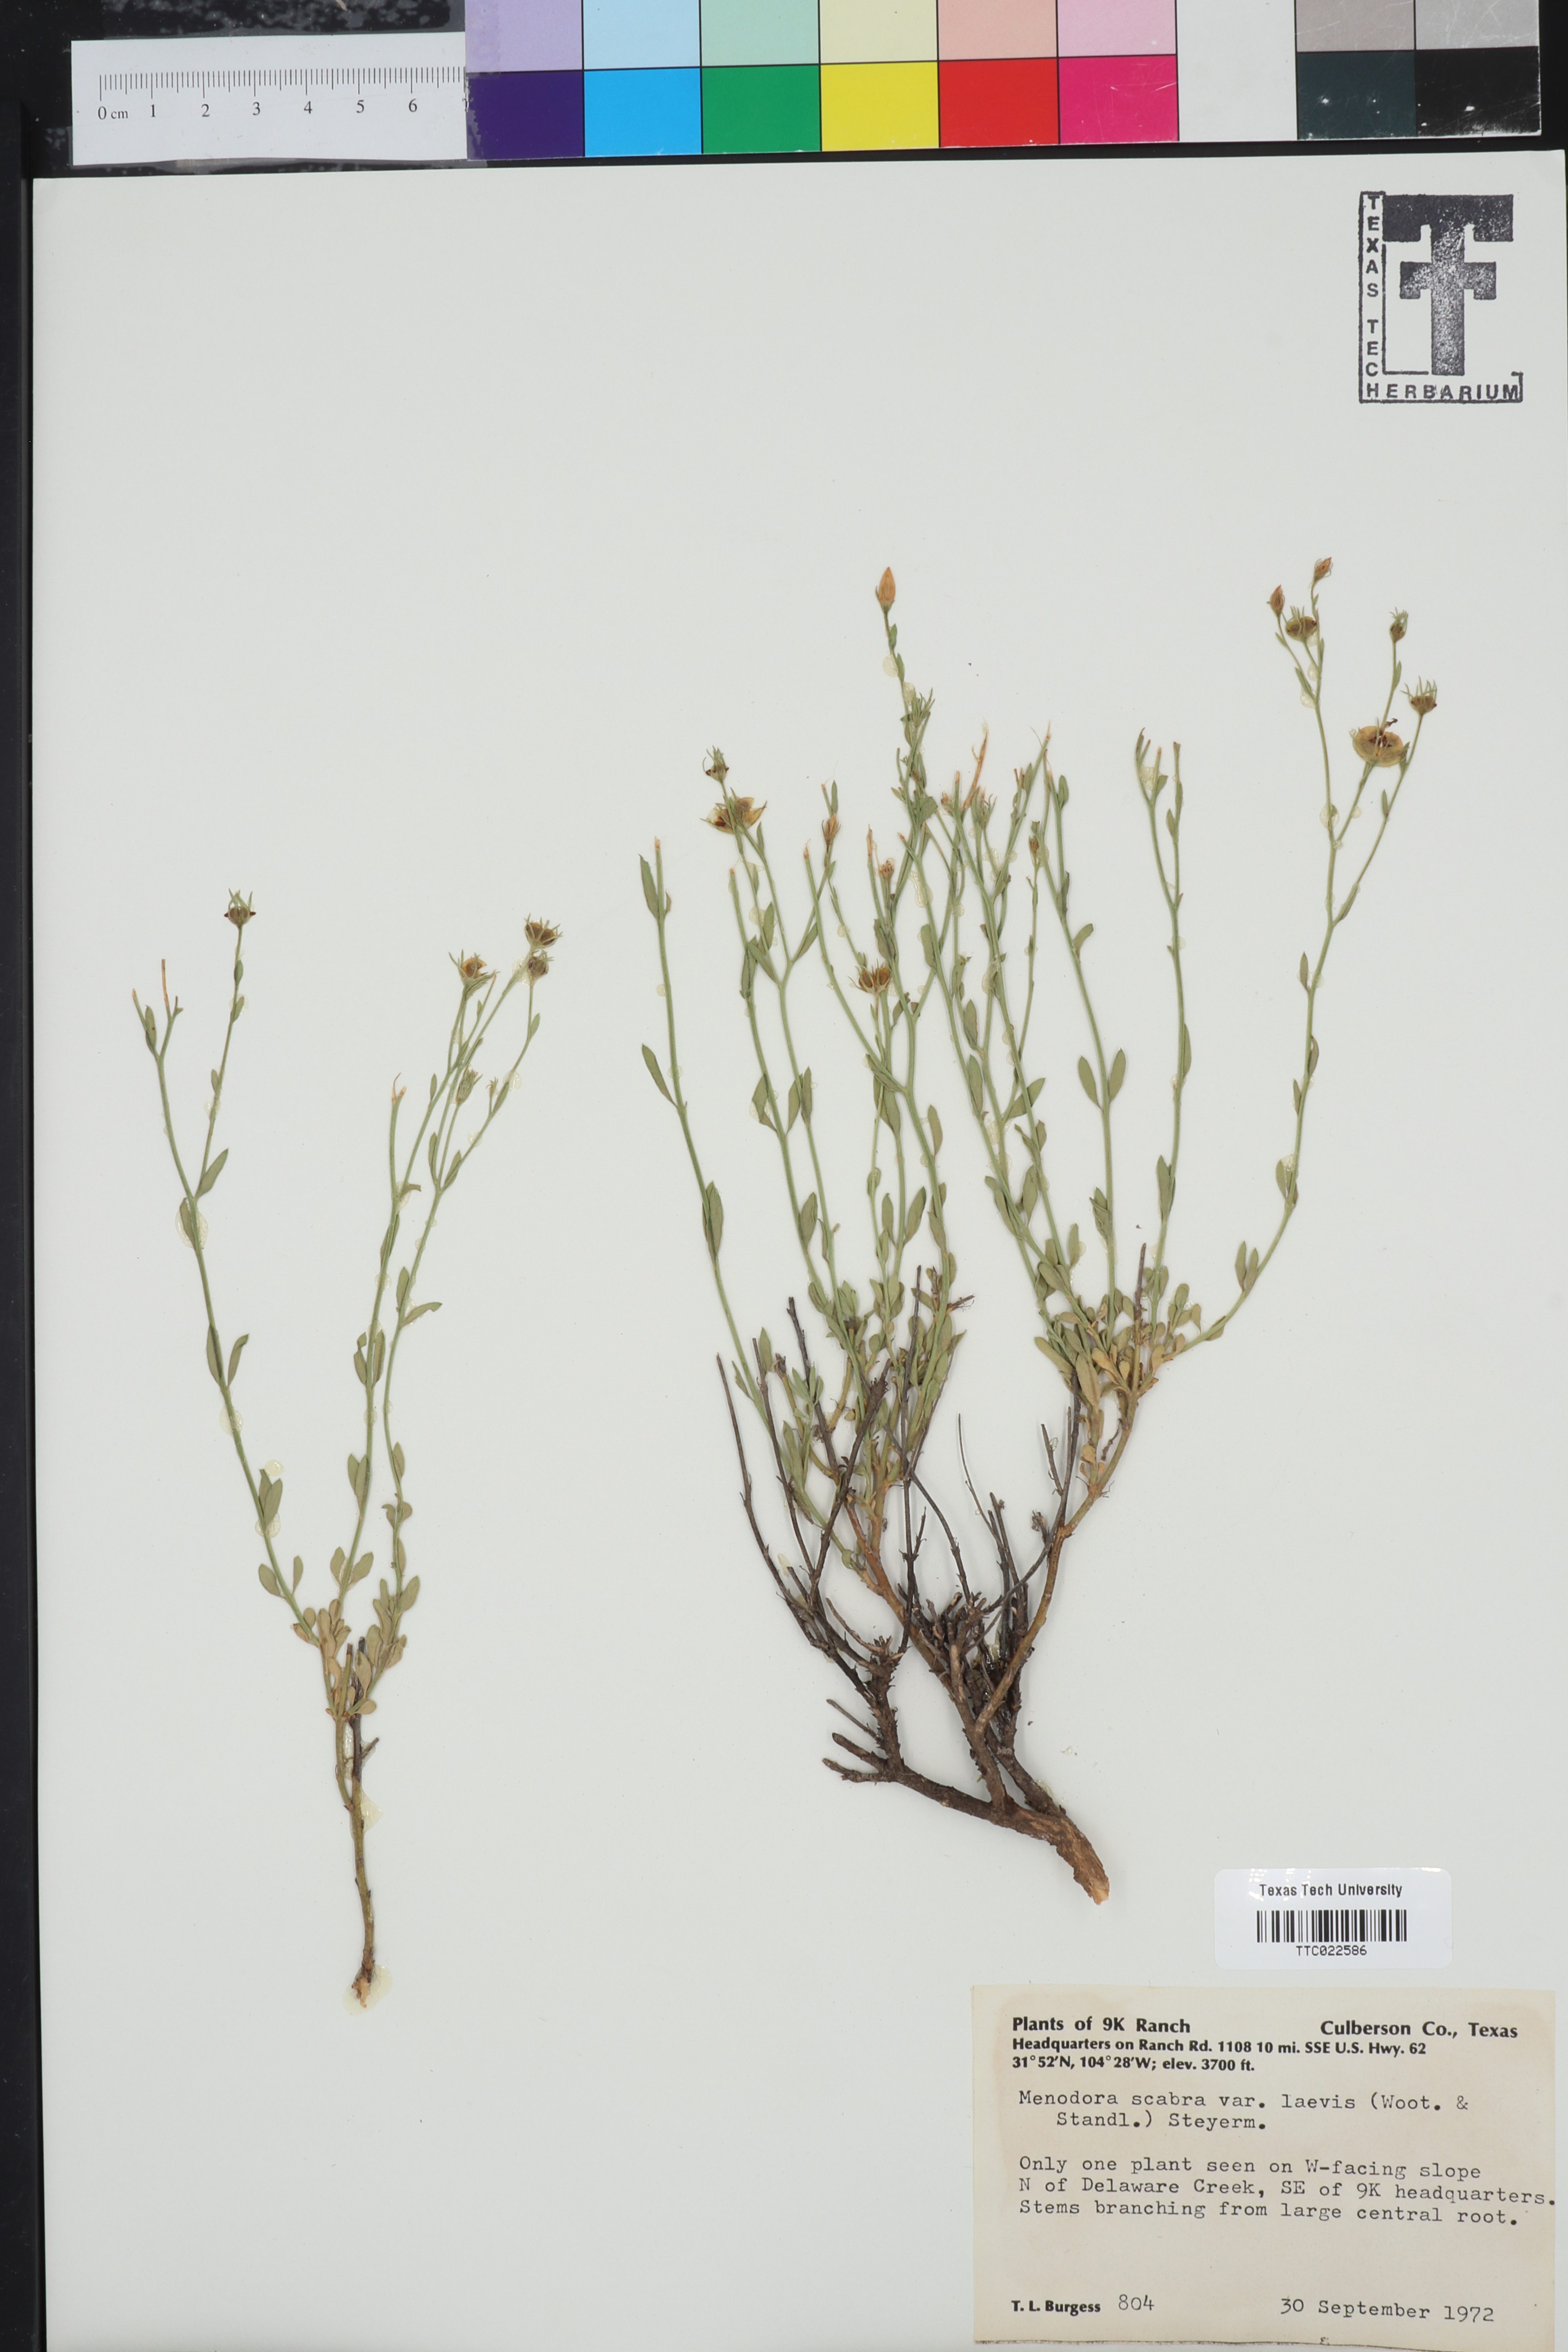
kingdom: Plantae
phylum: Tracheophyta
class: Magnoliopsida
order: Lamiales
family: Oleaceae
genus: Menodora
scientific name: Menodora scabra
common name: Rough menodora
